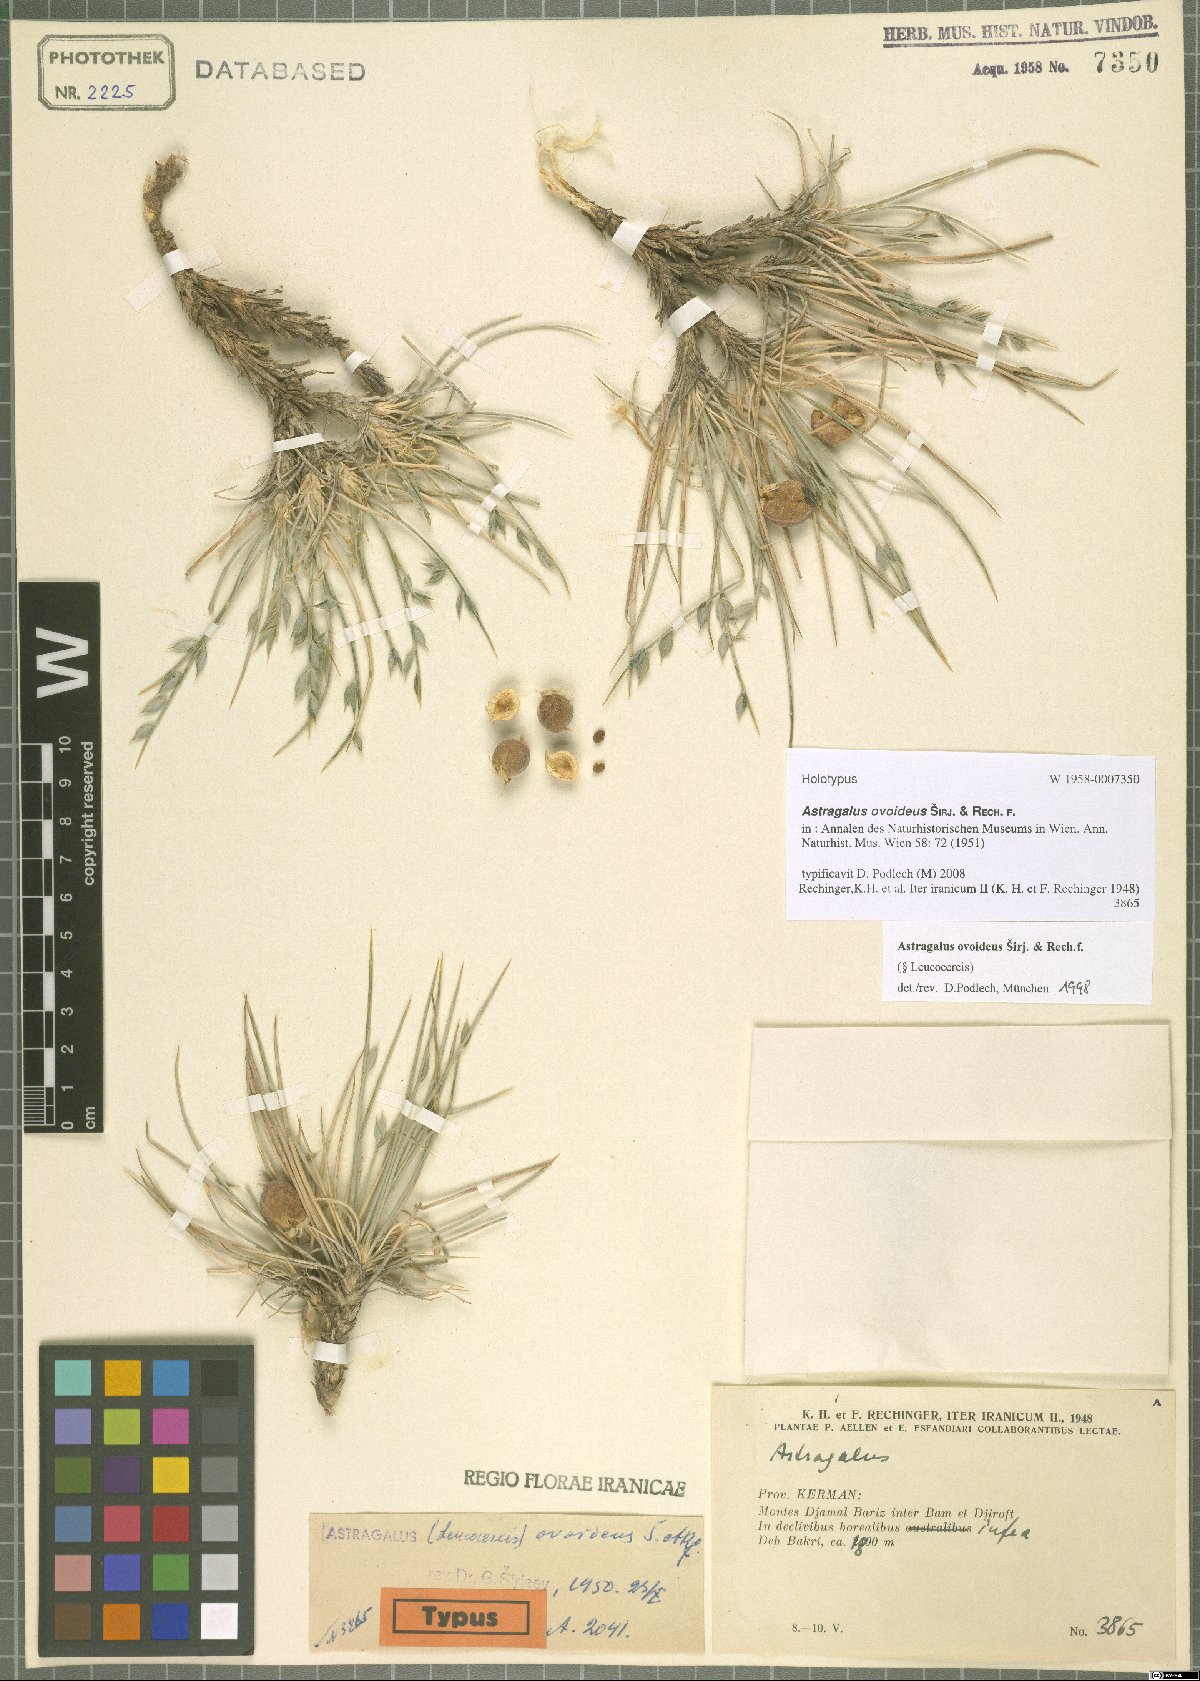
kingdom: Plantae
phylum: Tracheophyta
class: Magnoliopsida
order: Fabales
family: Fabaceae
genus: Astragalus
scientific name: Astragalus ovoideus
